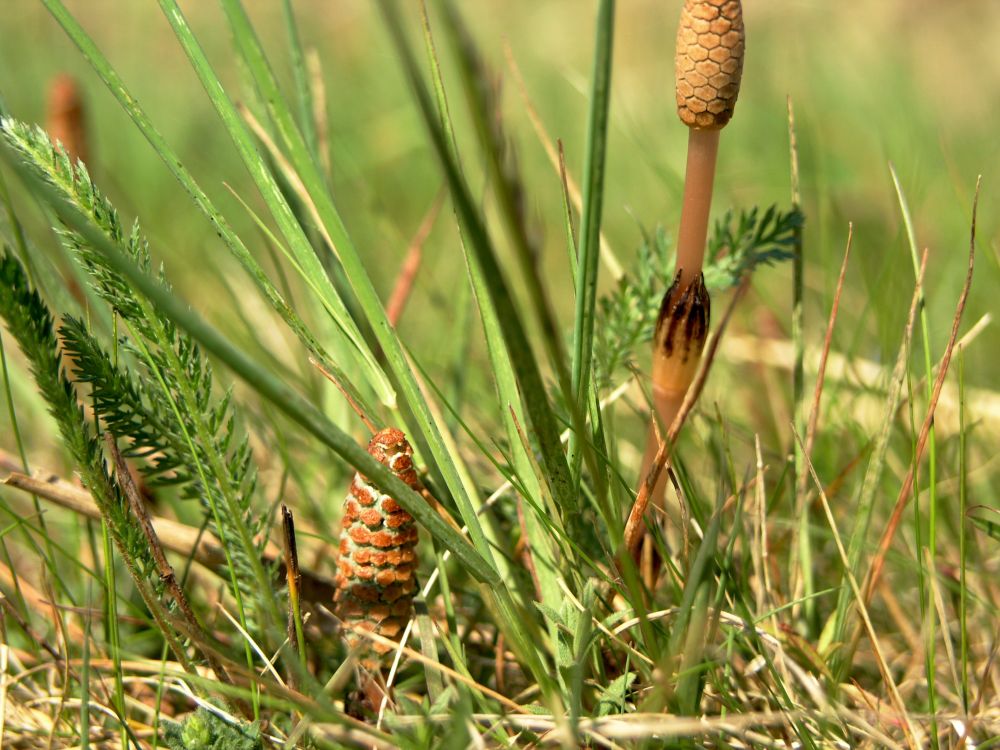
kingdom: Plantae
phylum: Tracheophyta
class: Polypodiopsida
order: Equisetales
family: Equisetaceae
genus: Equisetum
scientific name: Equisetum arvense
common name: Field horsetail
